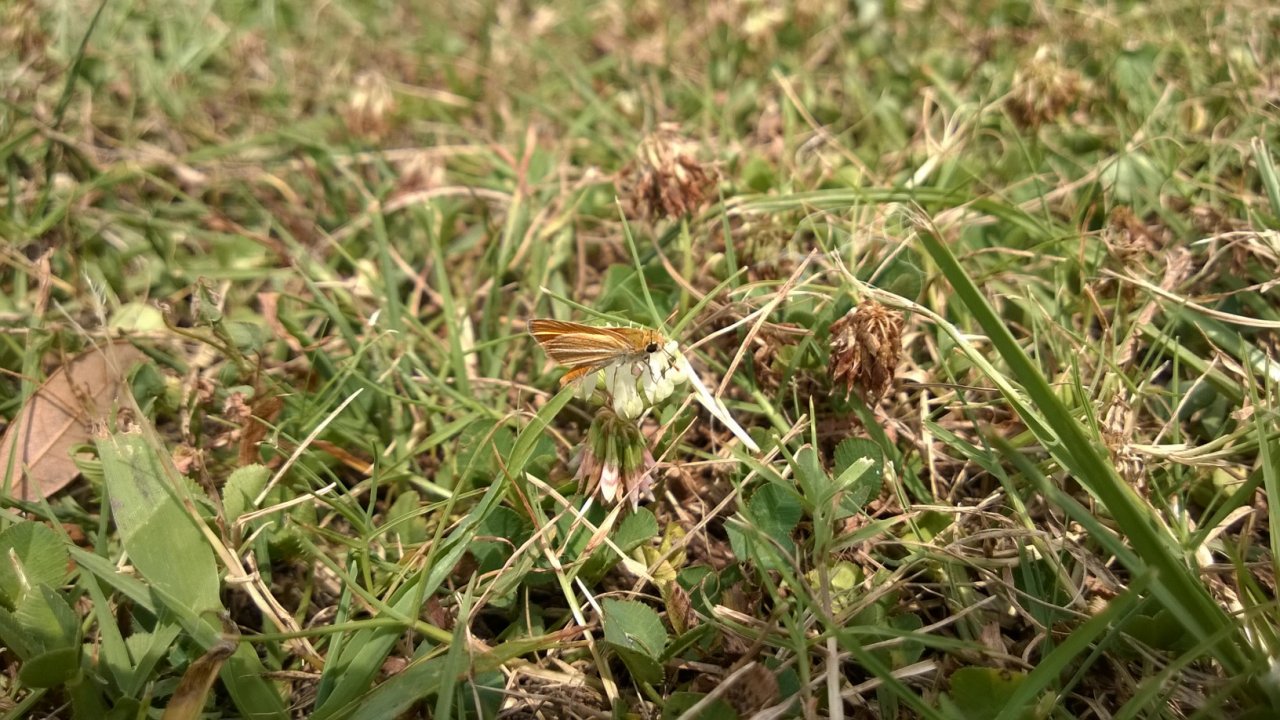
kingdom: Animalia
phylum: Arthropoda
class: Insecta
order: Lepidoptera
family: Hesperiidae
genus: Copaeodes
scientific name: Copaeodes minima
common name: Southern Skipperling
